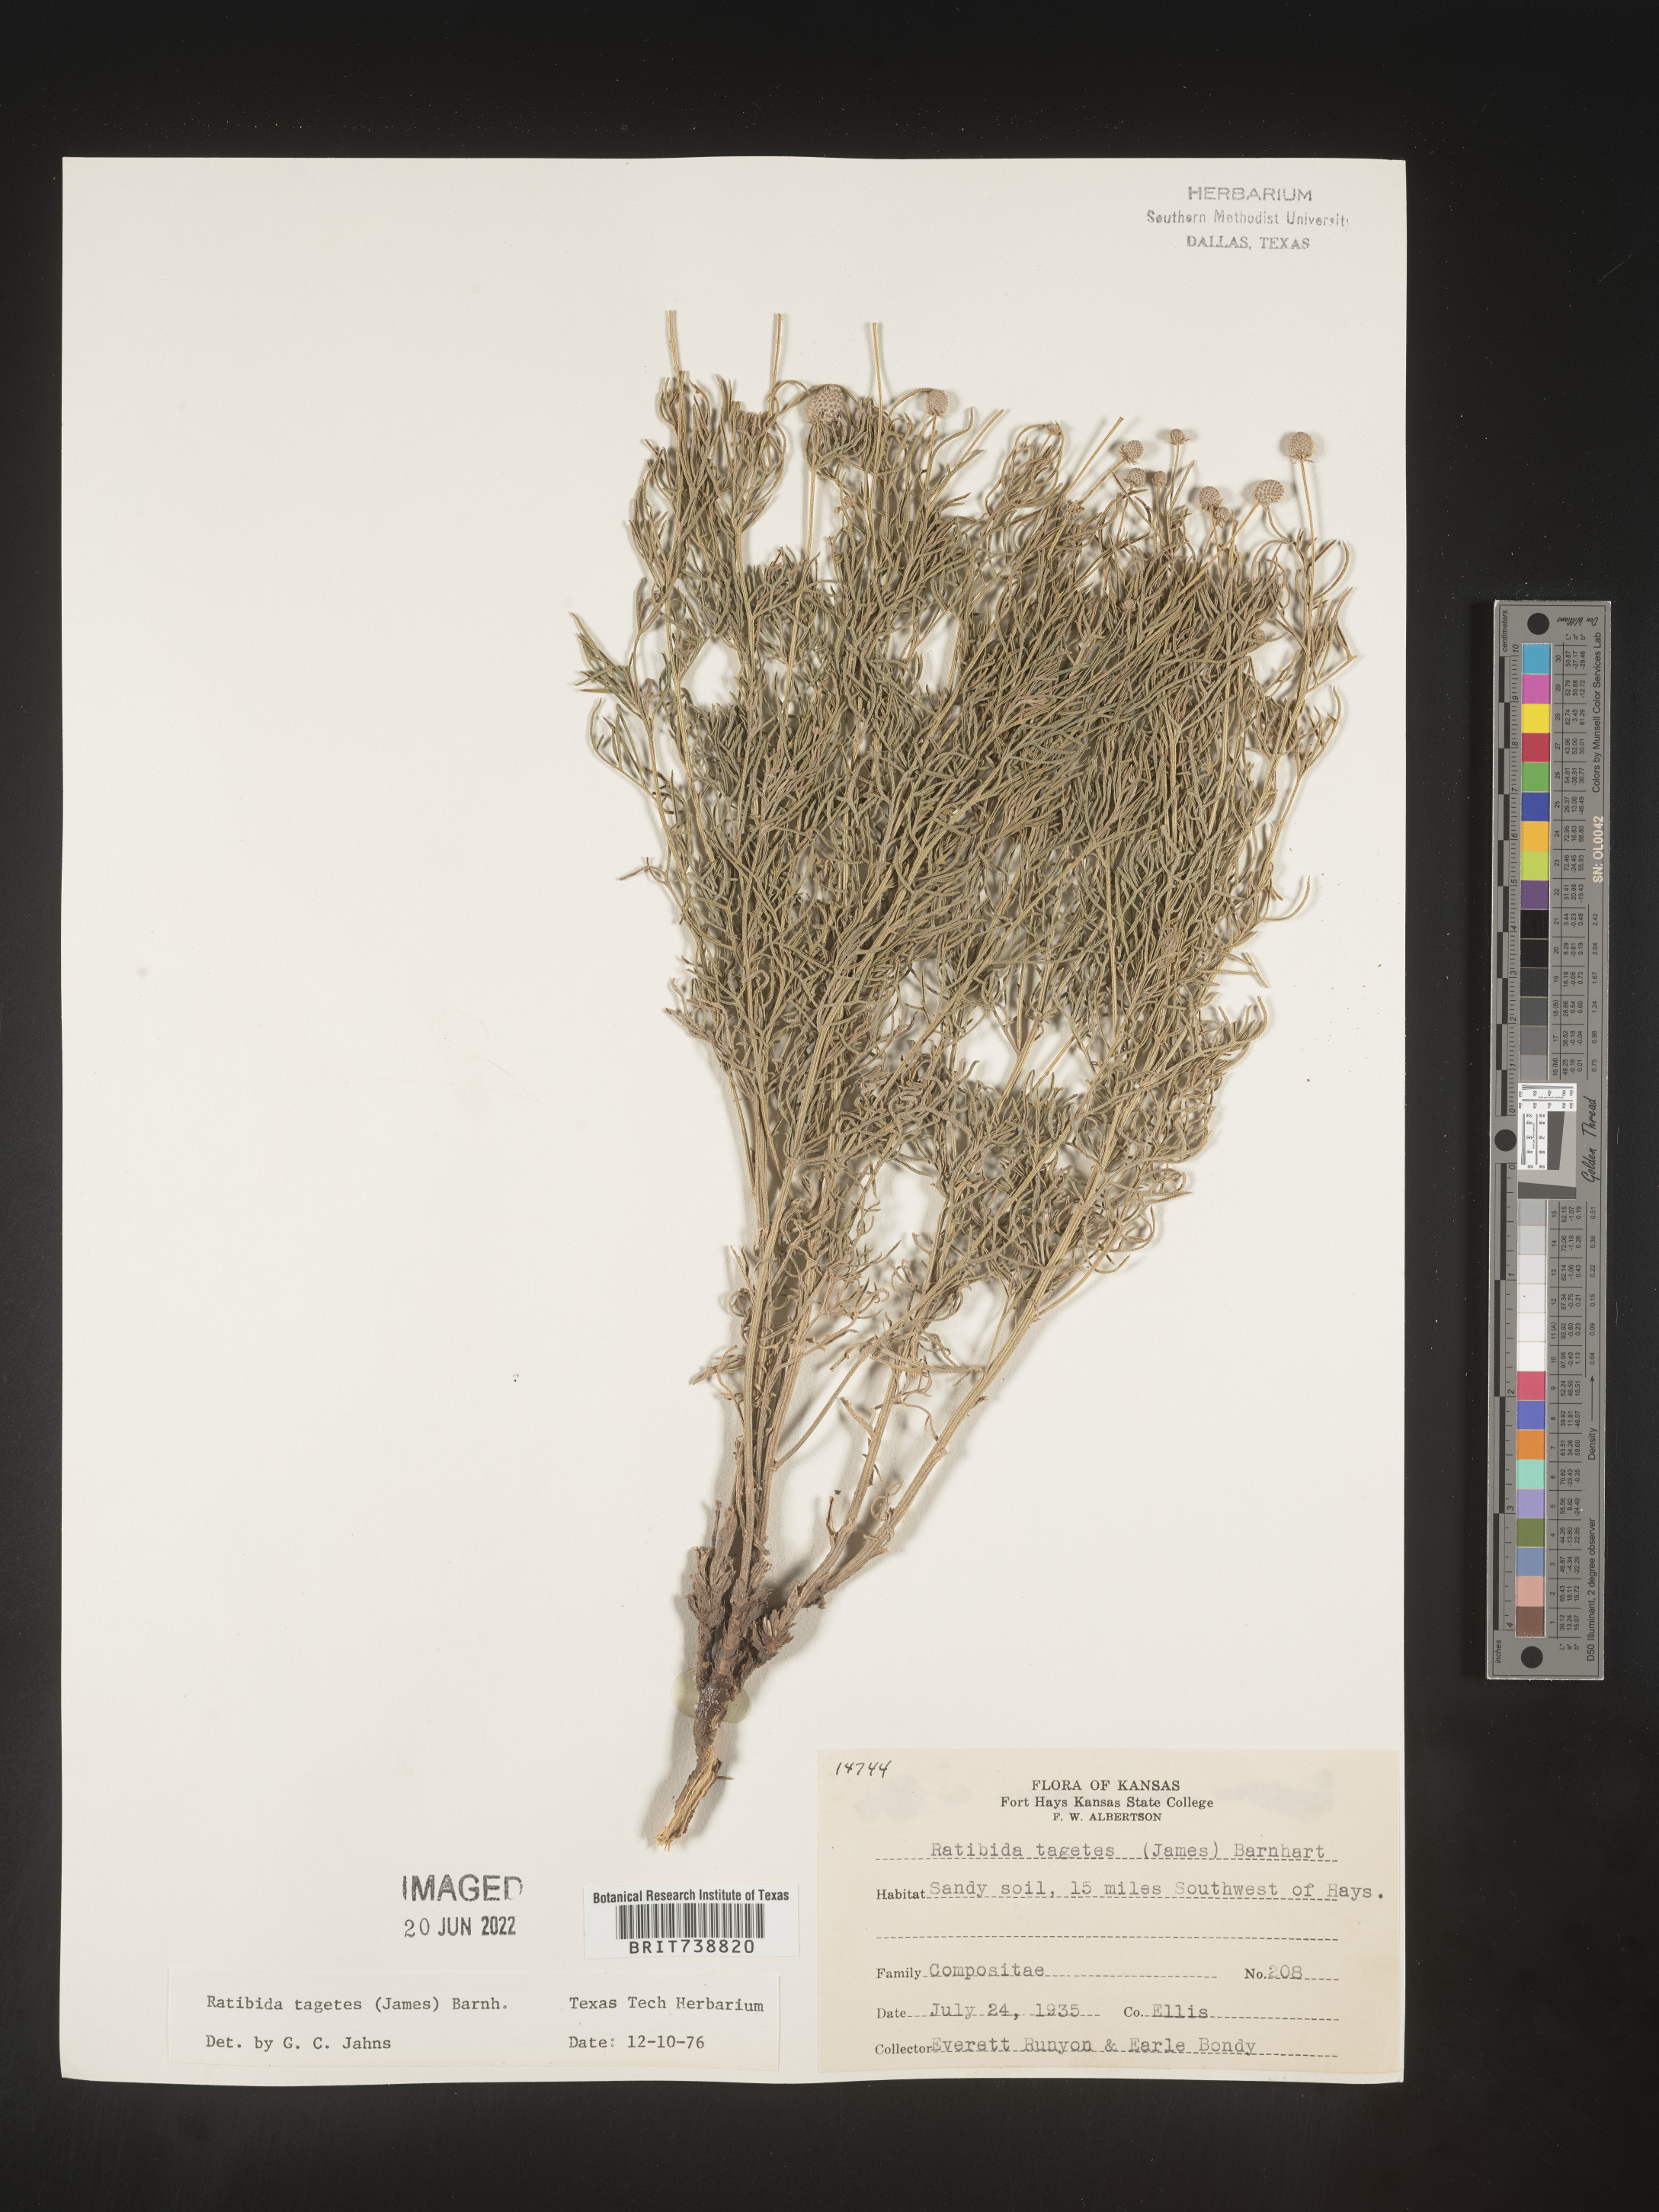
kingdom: Plantae
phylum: Tracheophyta
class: Magnoliopsida
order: Asterales
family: Asteraceae
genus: Ratibida
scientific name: Ratibida tagetes
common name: Green mexican-hat
